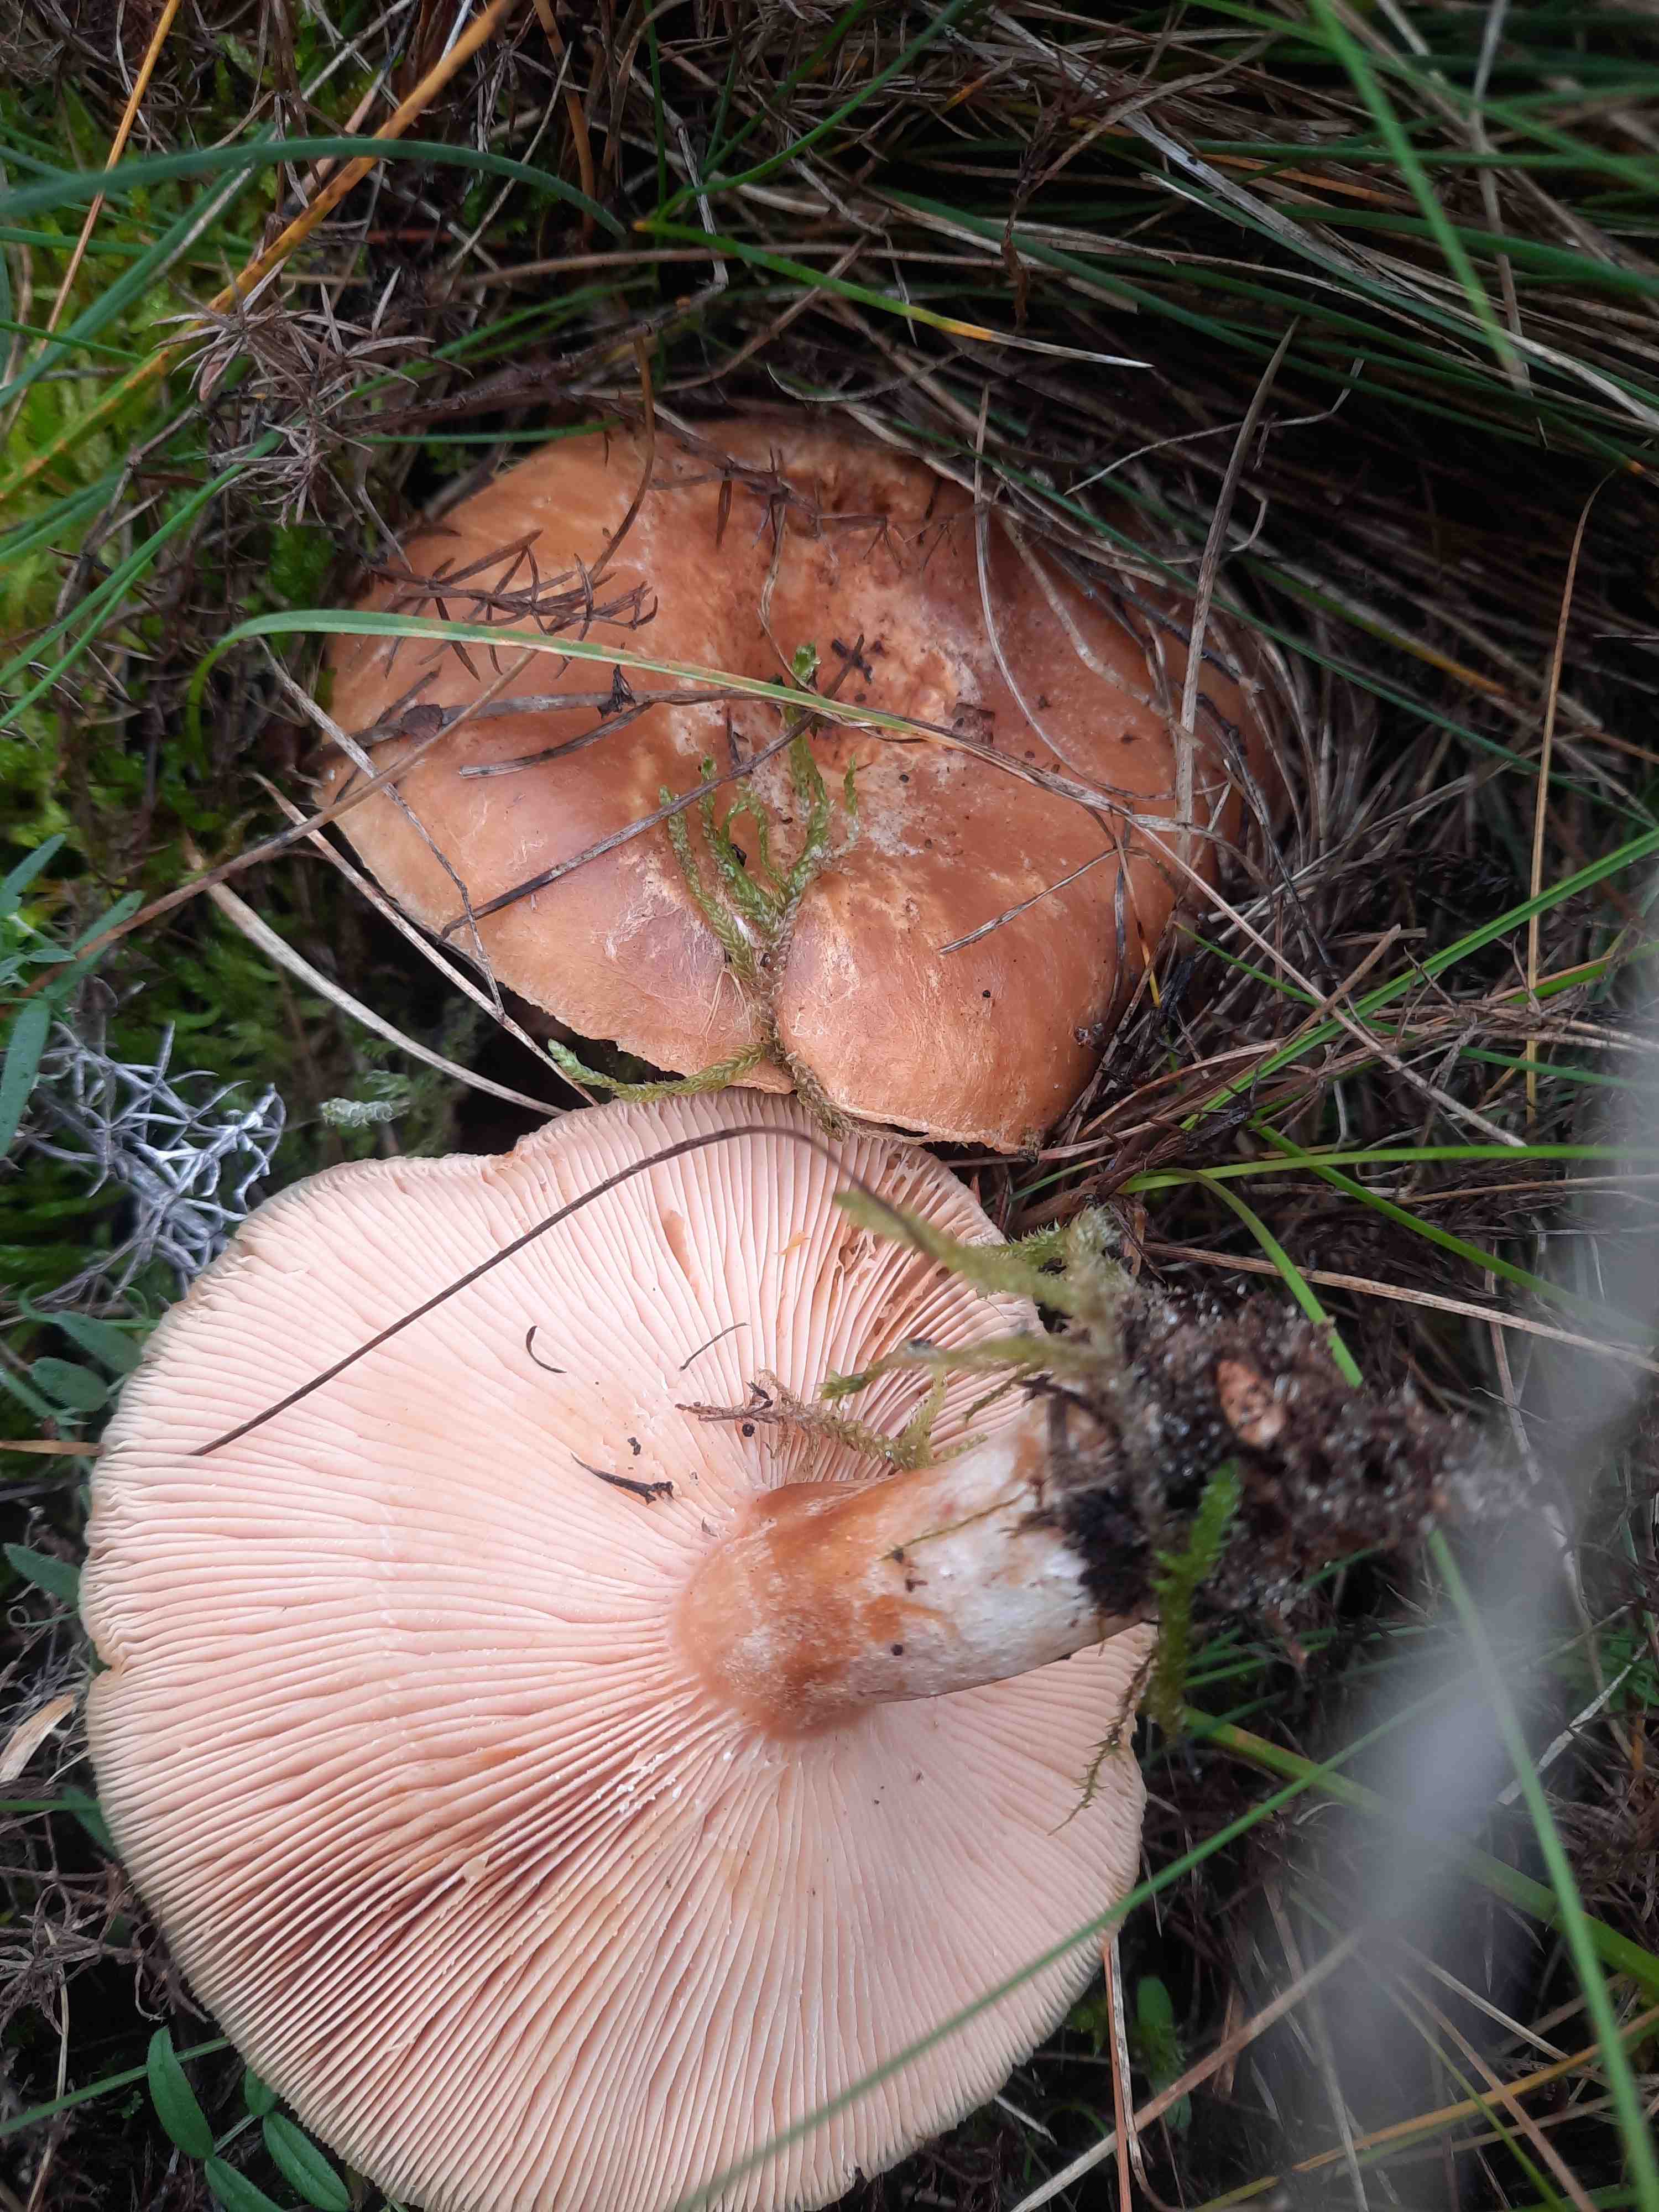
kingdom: Fungi
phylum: Basidiomycota
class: Agaricomycetes
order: Russulales
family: Russulaceae
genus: Lactarius
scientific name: Lactarius
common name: mælkehat
